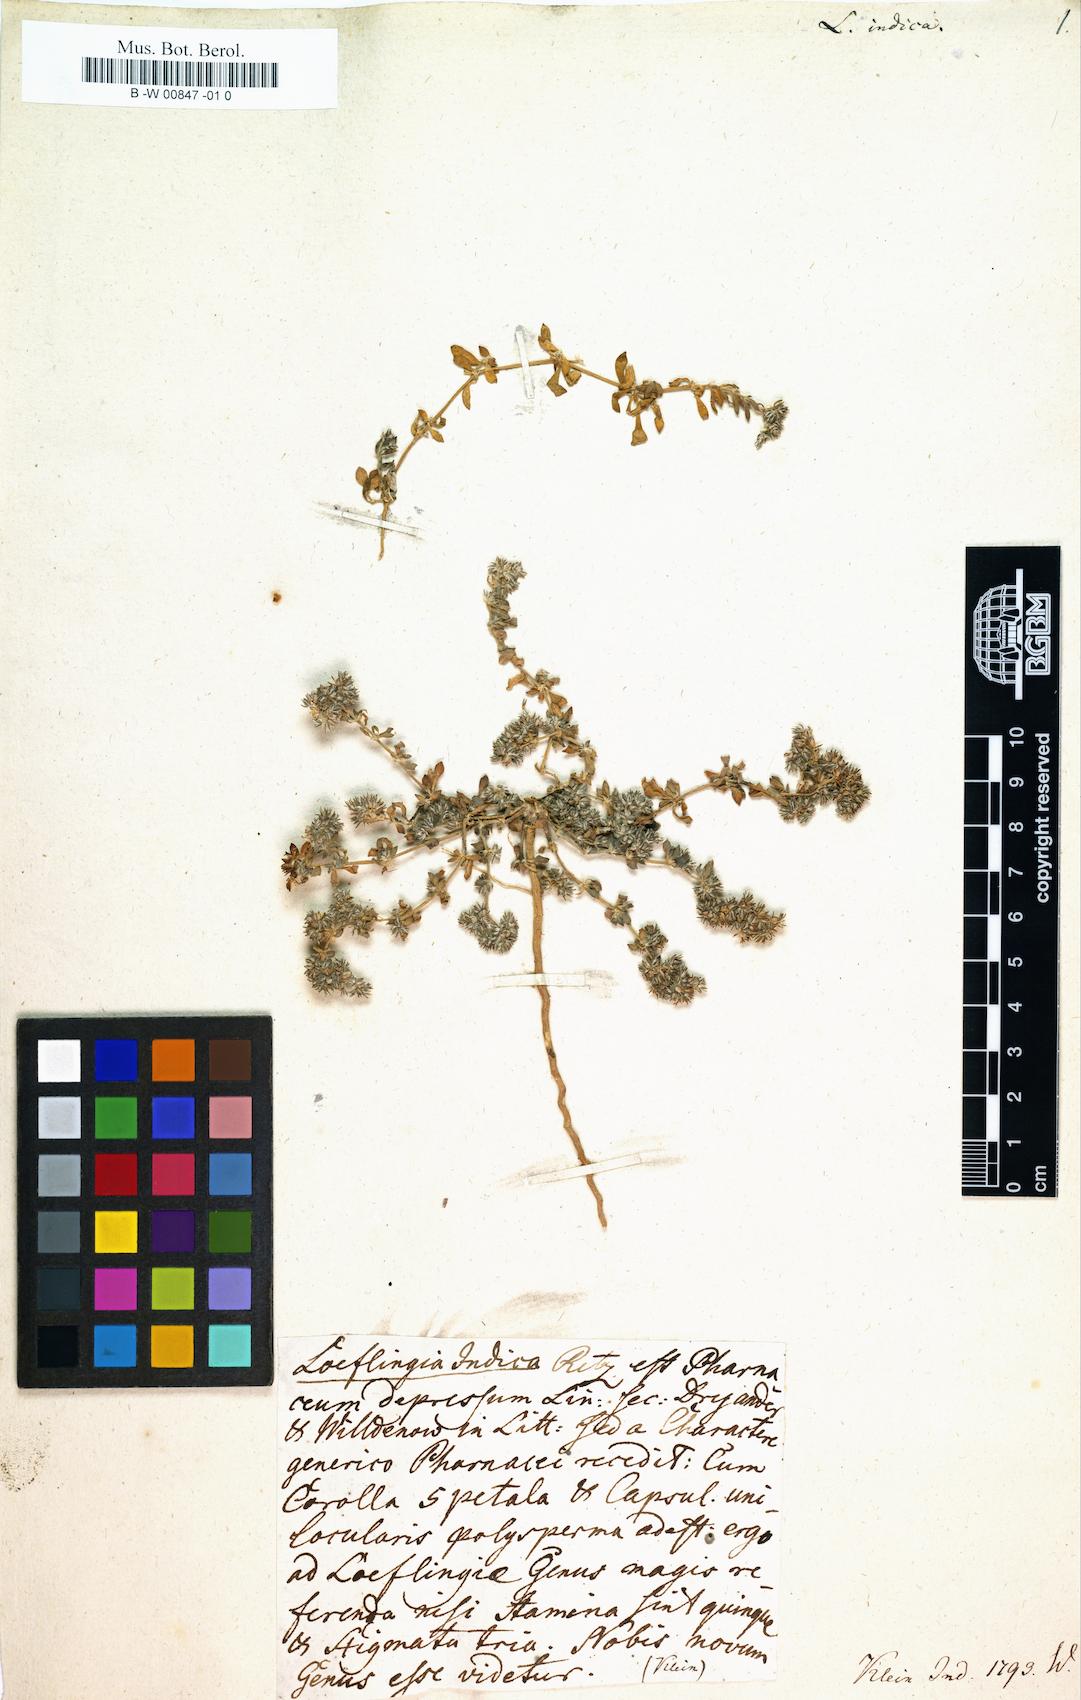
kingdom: Plantae
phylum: Tracheophyta
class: Magnoliopsida
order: Caryophyllales
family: Caryophyllaceae
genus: Polycarpon
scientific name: Polycarpon tetraphyllum
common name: Four-leaved all-seed
